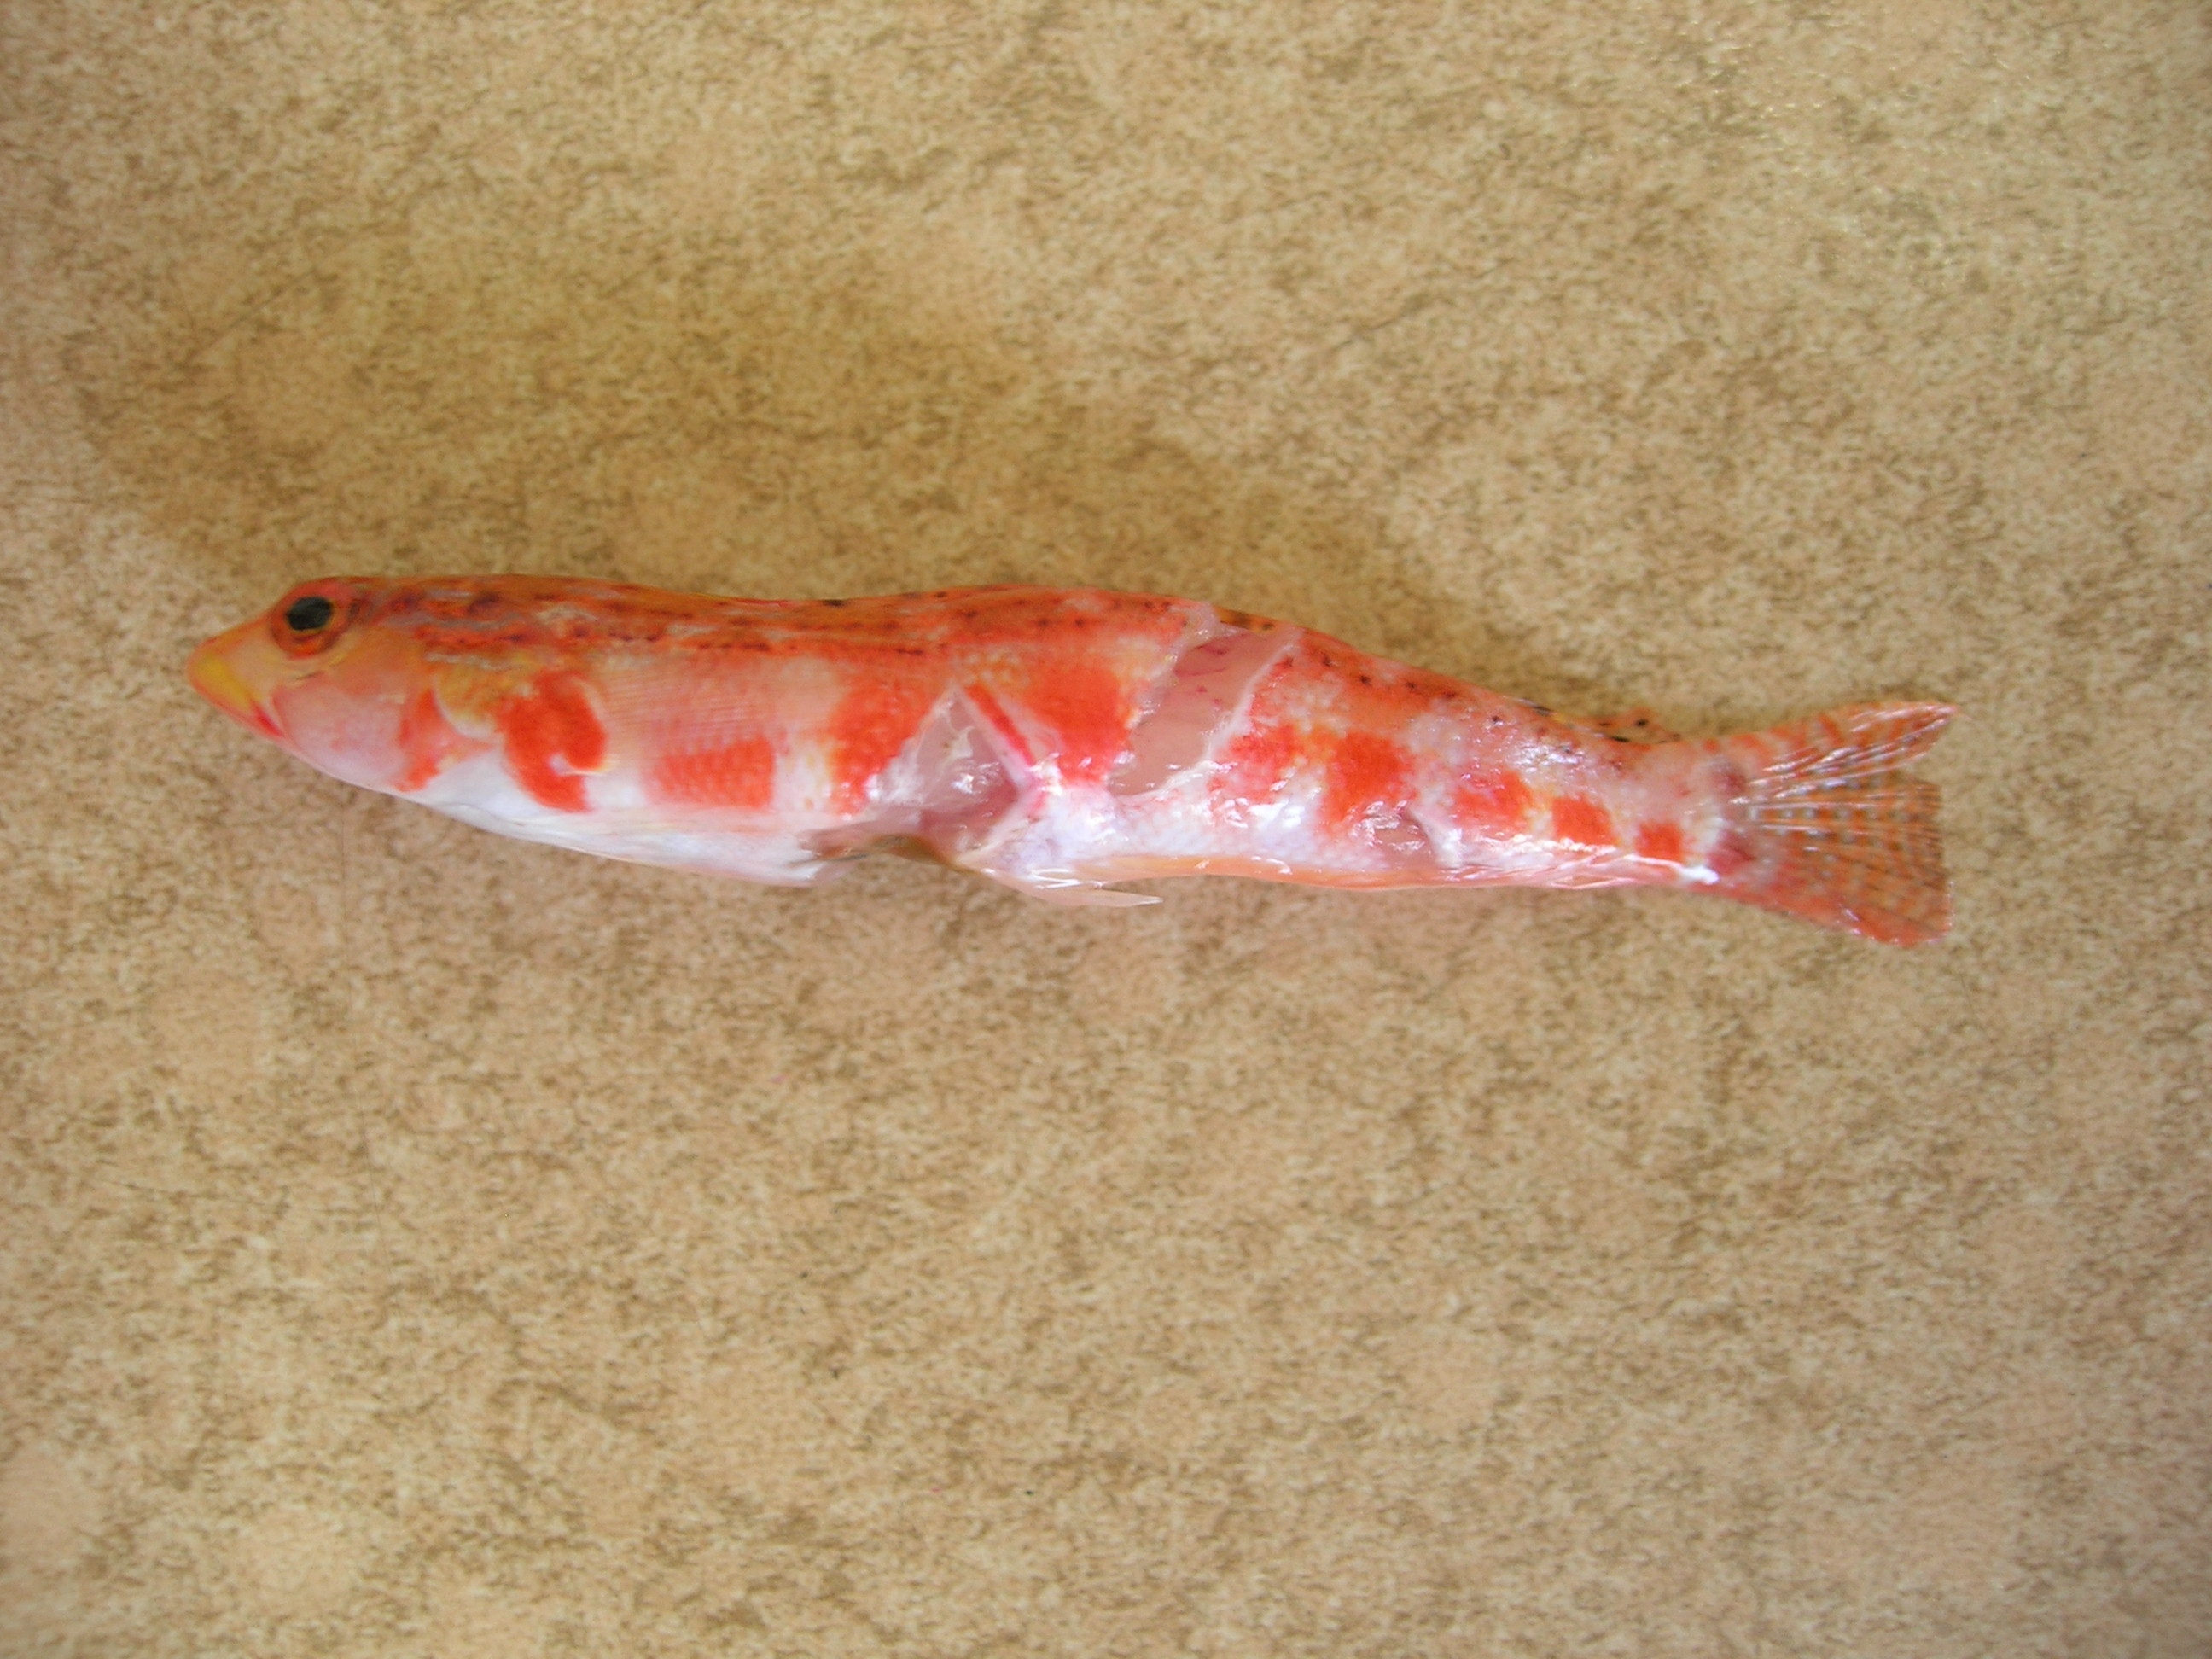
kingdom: Animalia
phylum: Chordata
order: Perciformes
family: Pinguipedidae
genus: Parapercis
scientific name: Parapercis schauinslandii
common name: Redspotted sandperch
